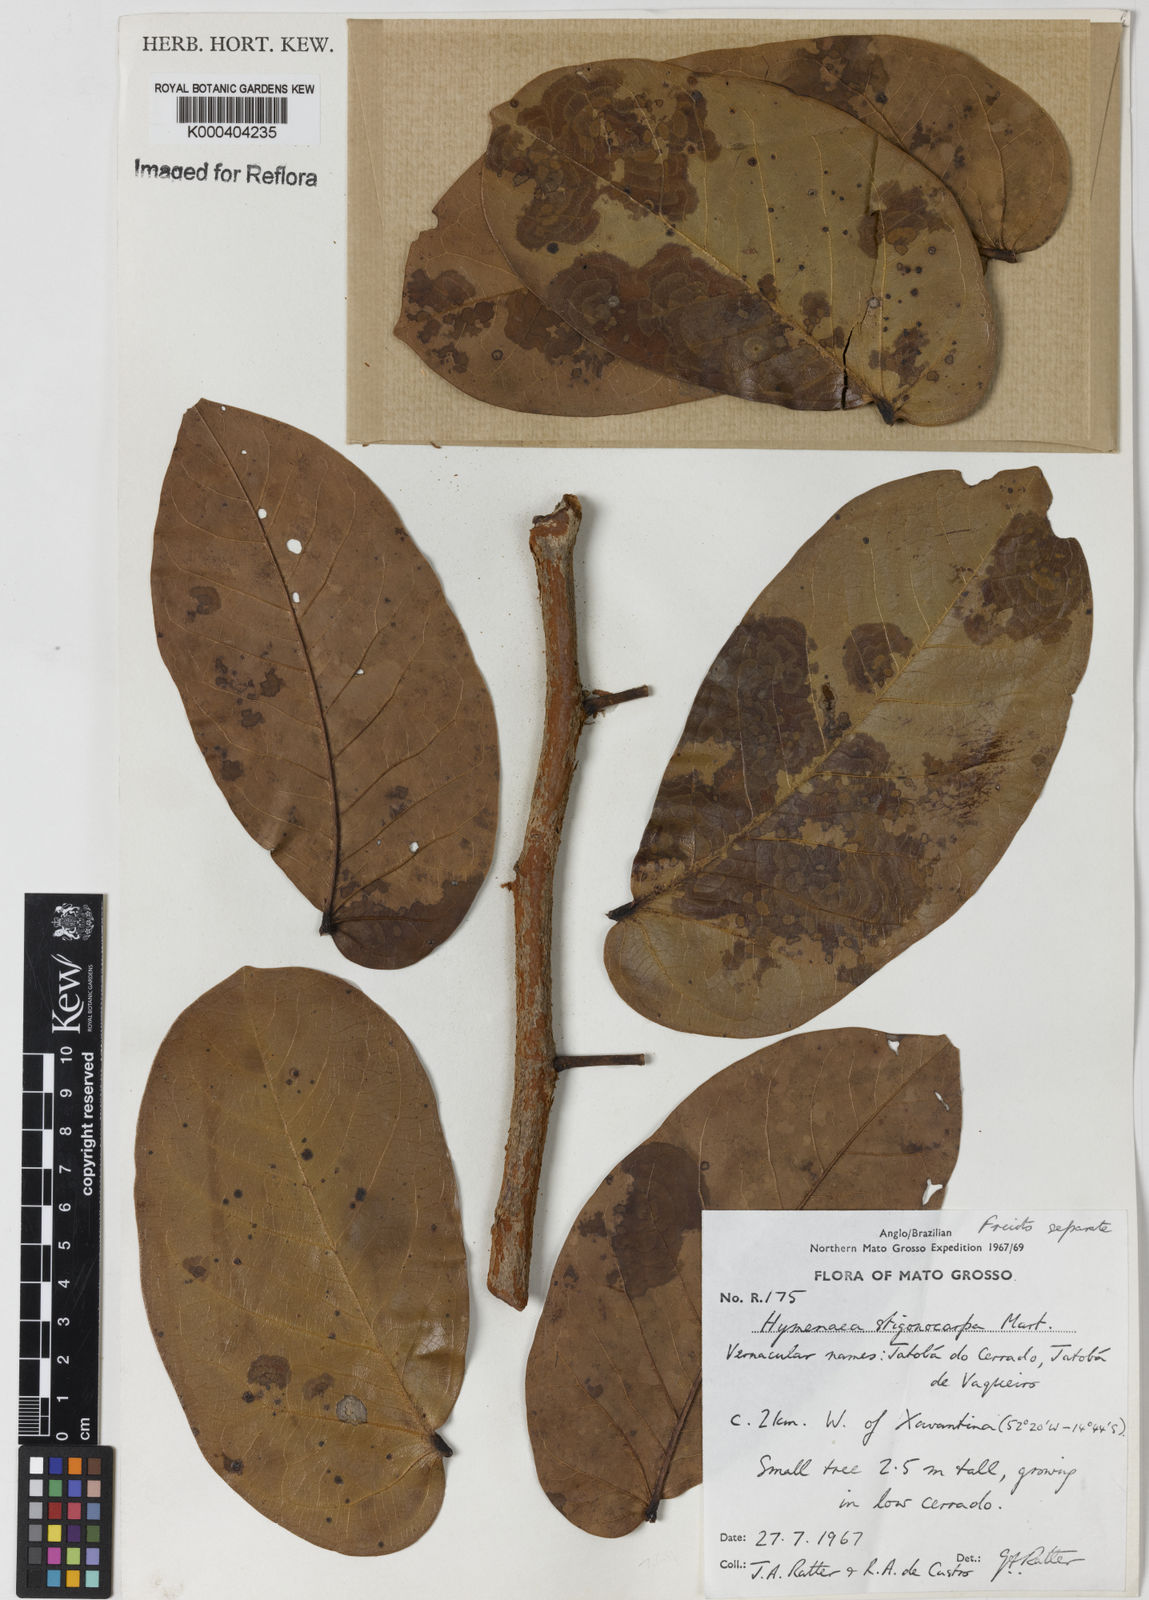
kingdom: Plantae
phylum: Tracheophyta
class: Magnoliopsida
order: Fabales
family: Fabaceae
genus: Hymenaea
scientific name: Hymenaea stigonocarpa
